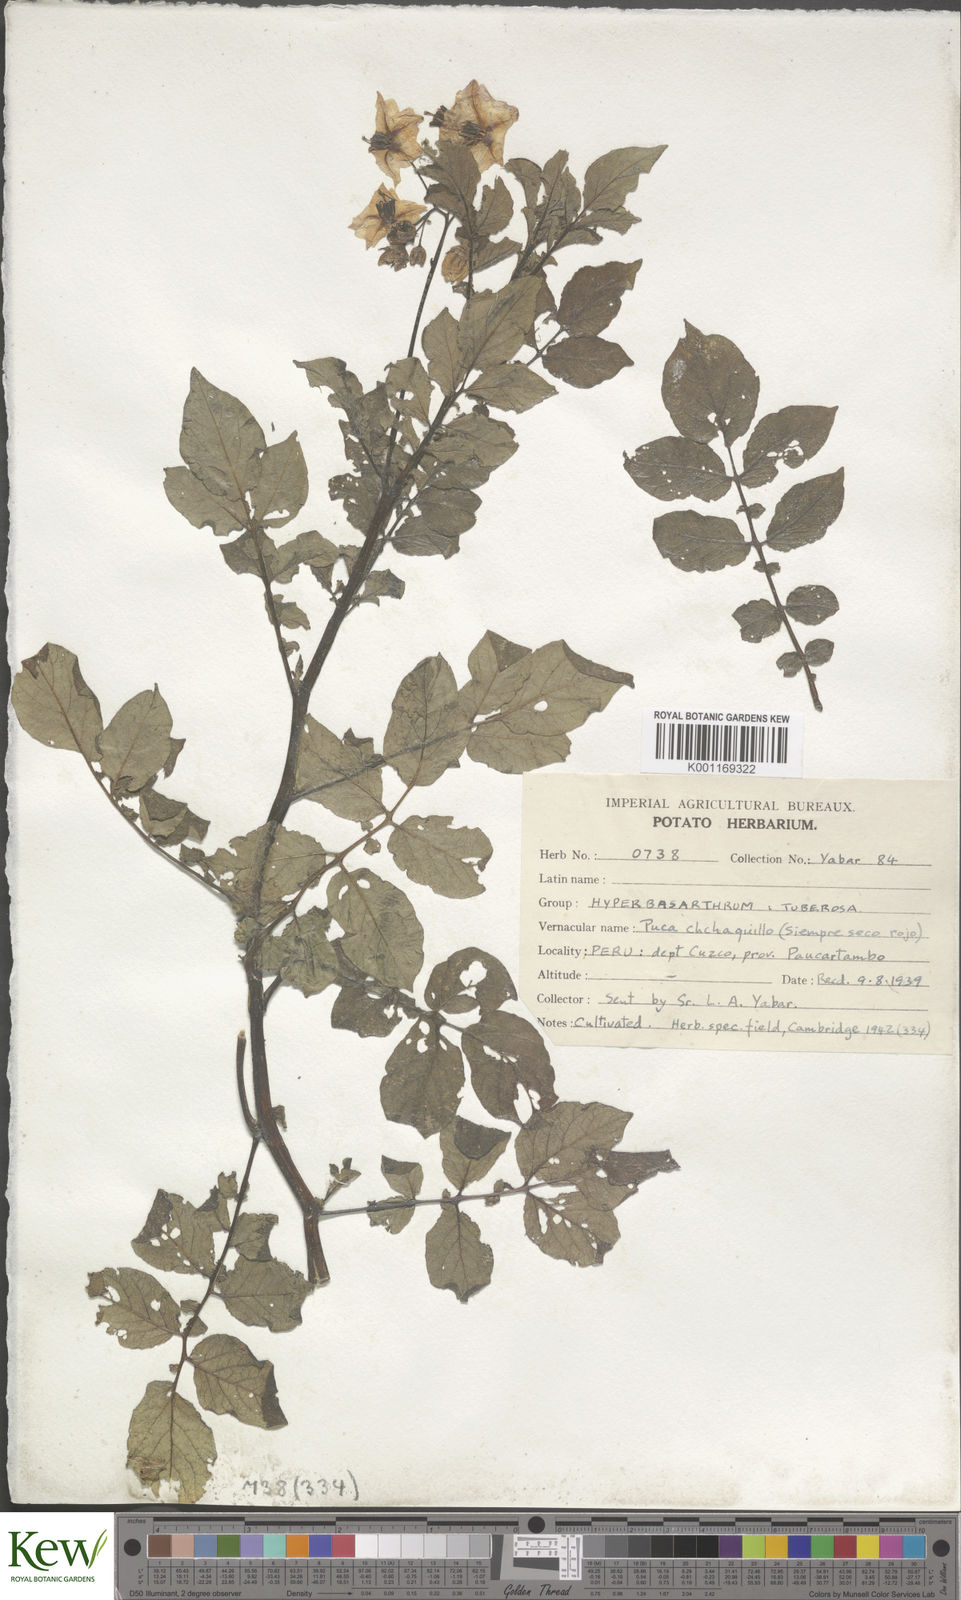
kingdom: Plantae
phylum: Tracheophyta
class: Magnoliopsida
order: Solanales
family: Solanaceae
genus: Solanum
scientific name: Solanum chaucha
